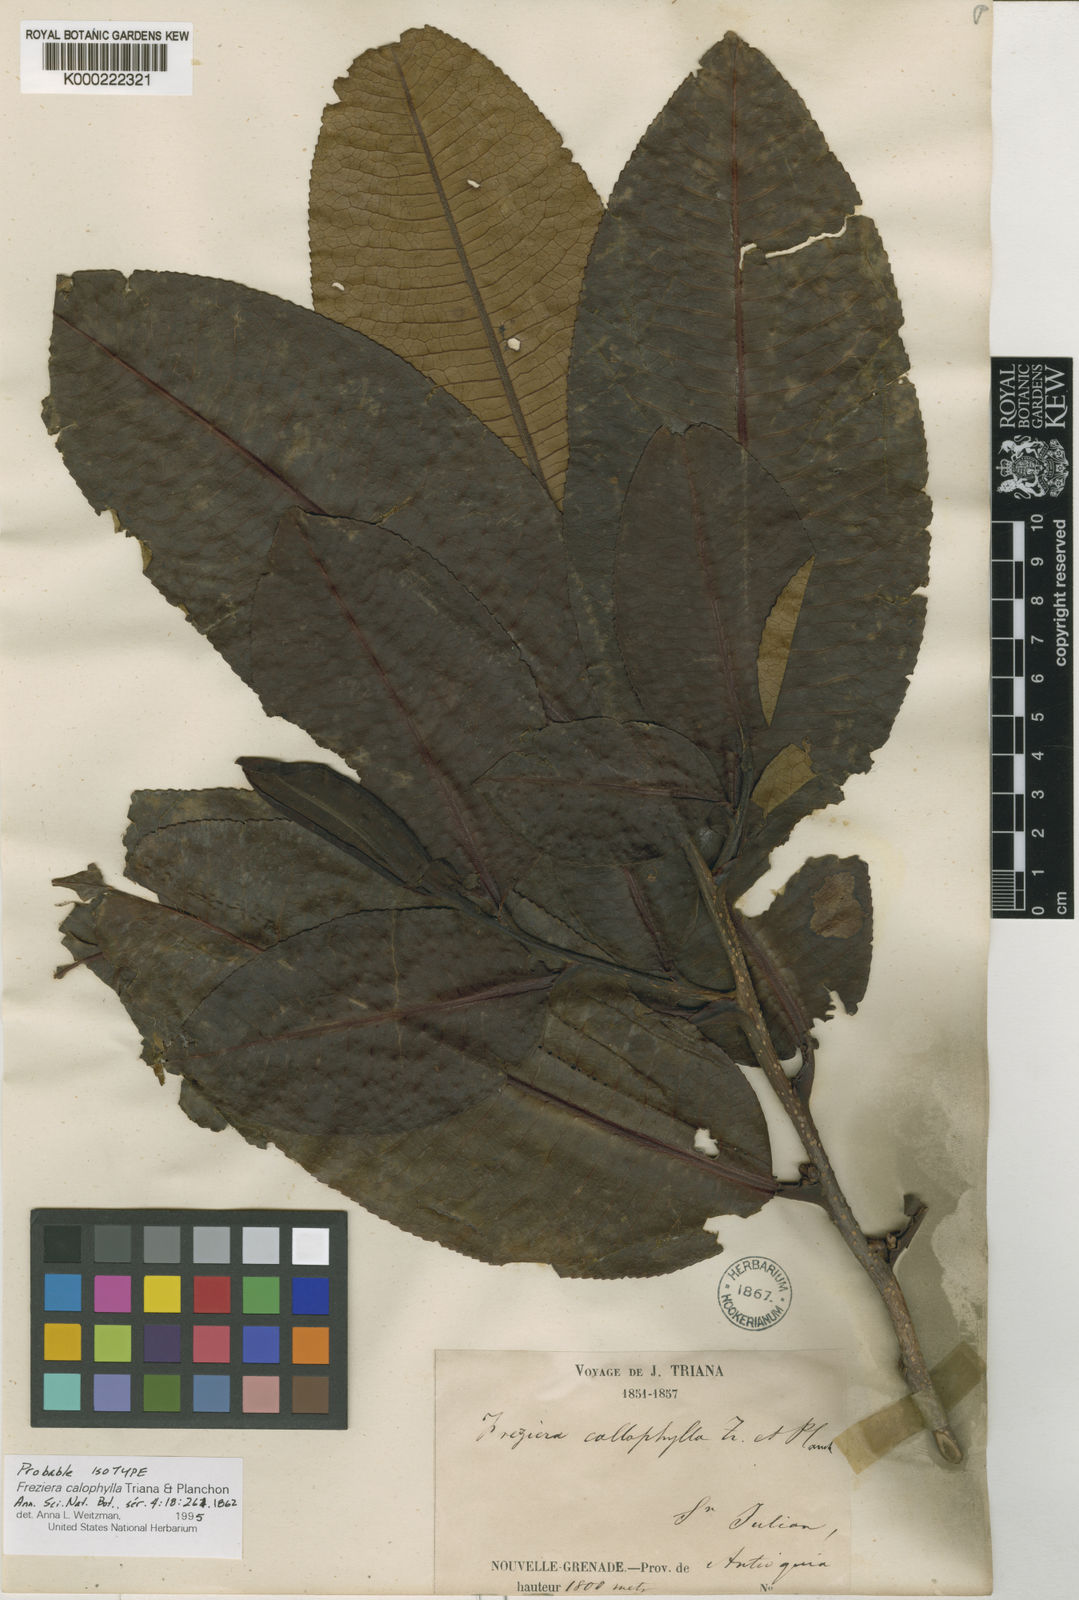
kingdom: Plantae
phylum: Tracheophyta
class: Magnoliopsida
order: Ericales
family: Pentaphylacaceae
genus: Freziera
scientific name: Freziera calophylla
